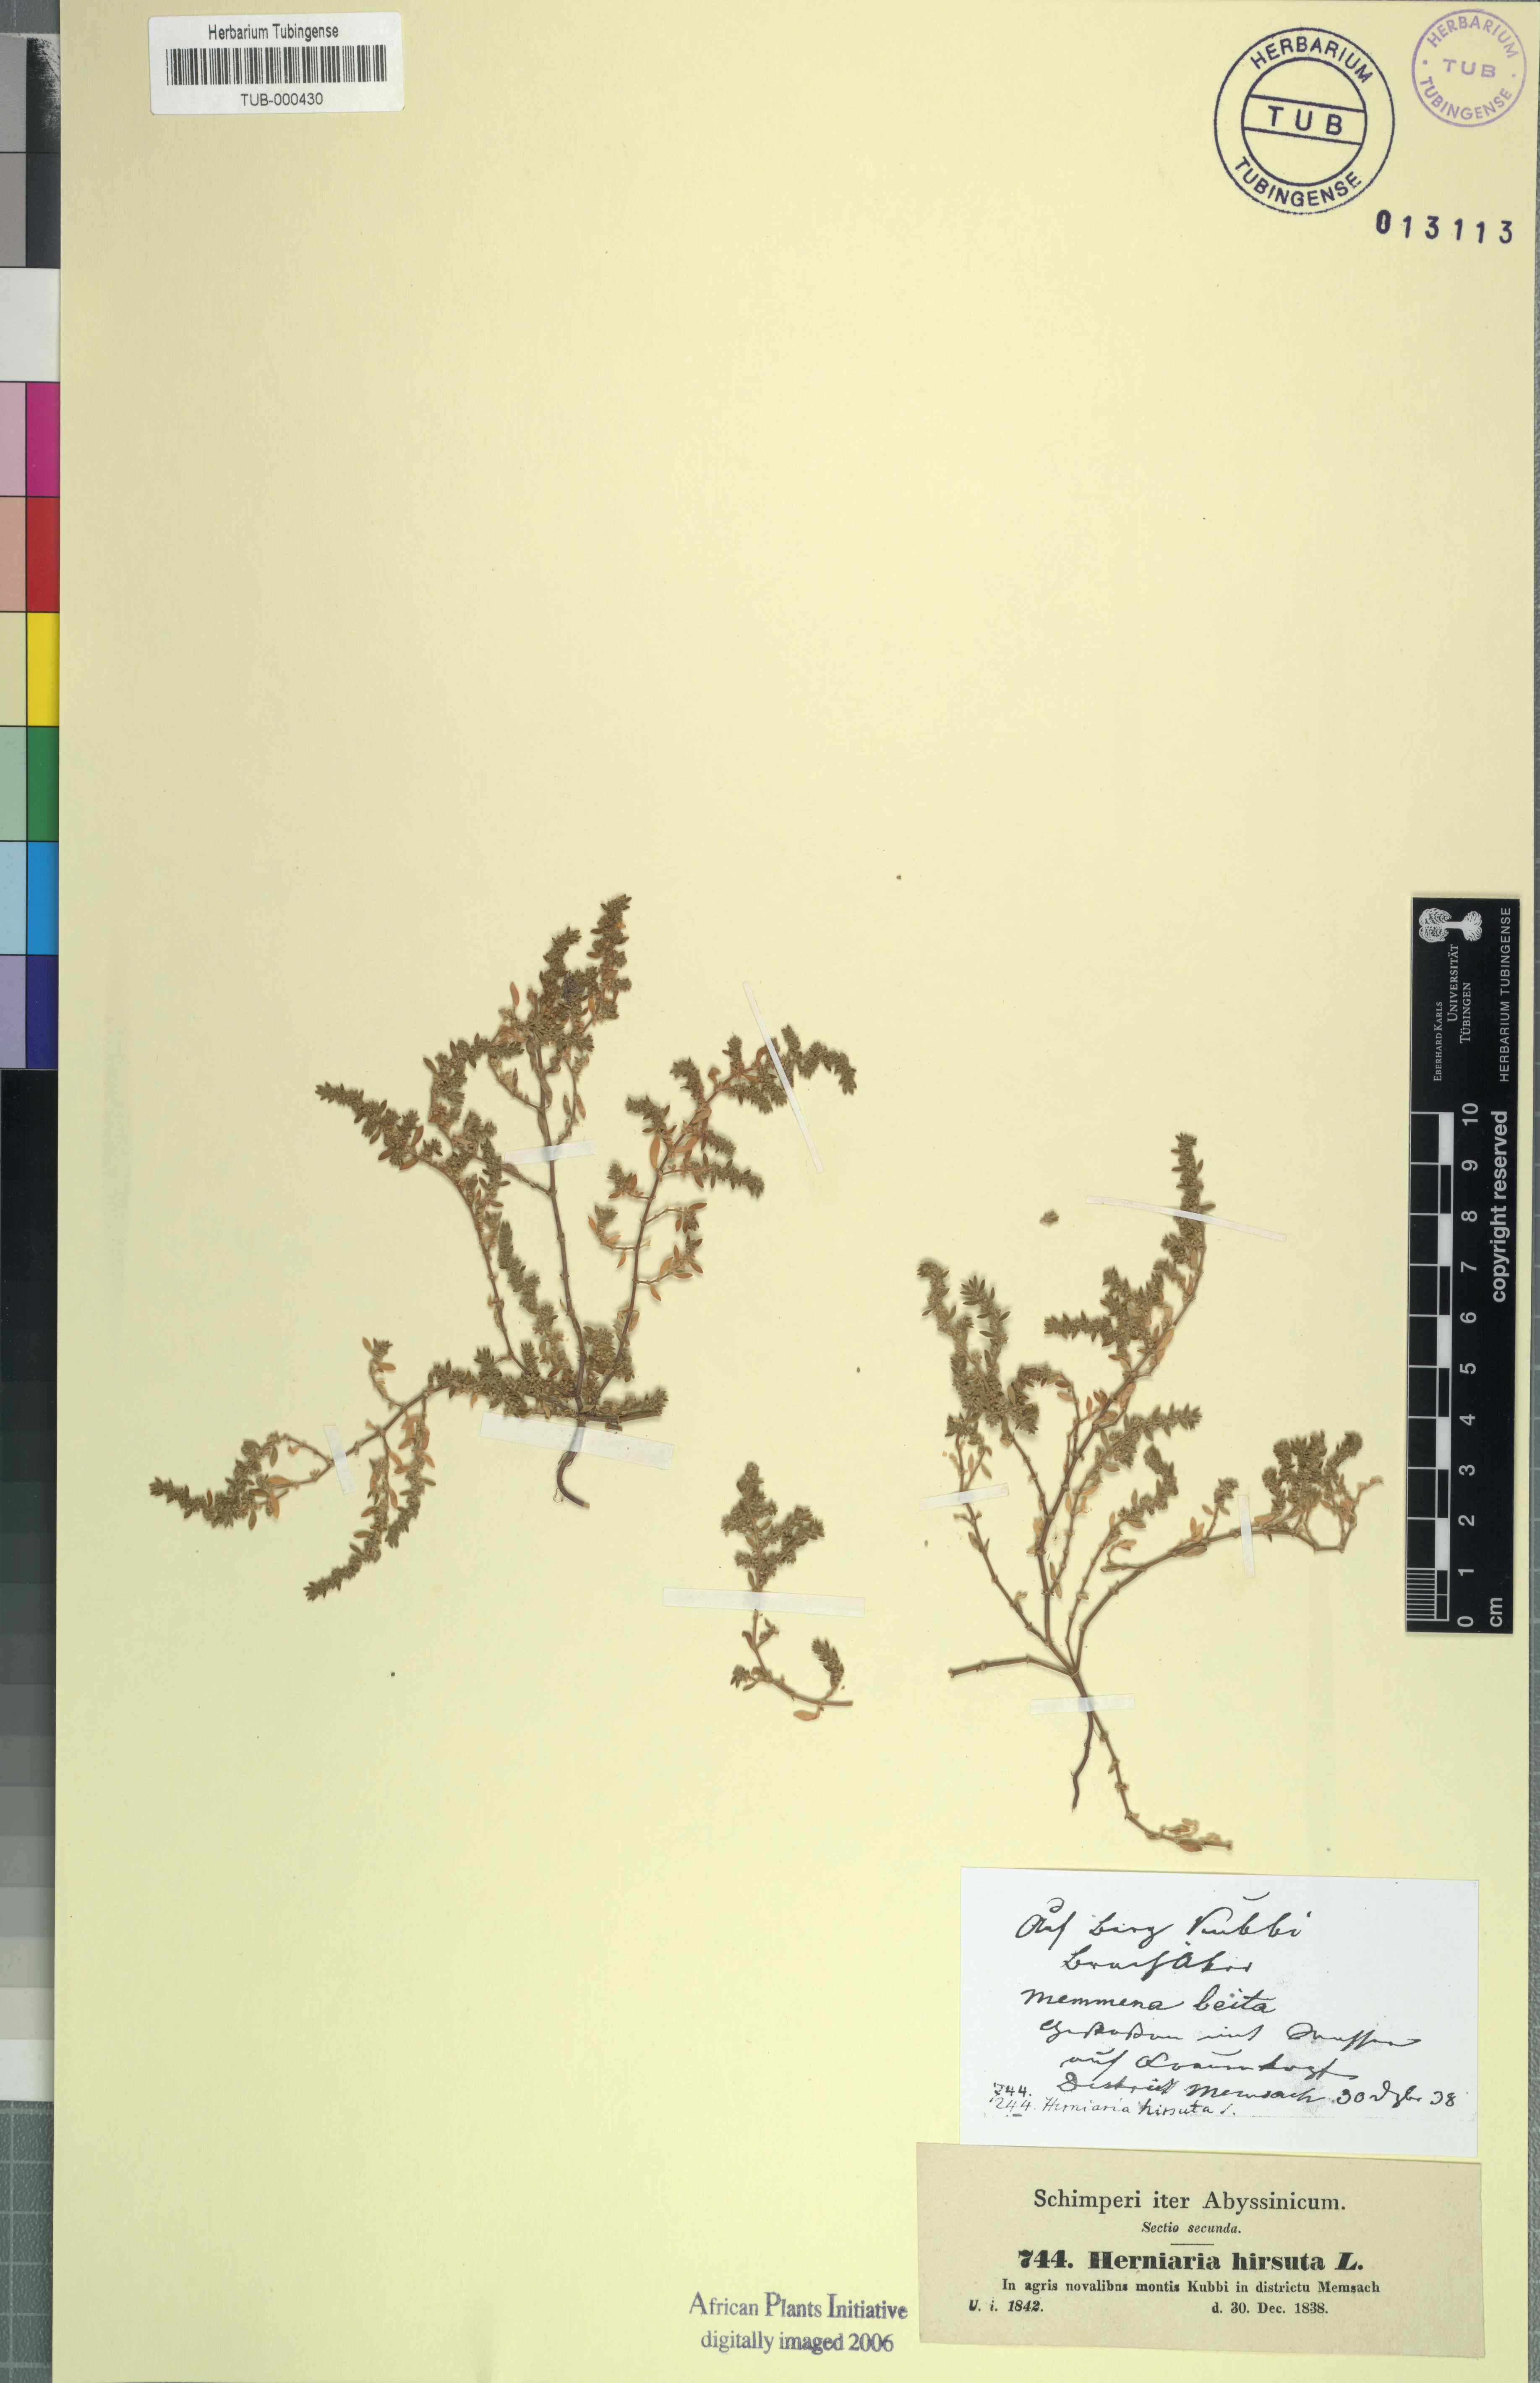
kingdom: Plantae
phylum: Tracheophyta
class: Magnoliopsida
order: Caryophyllales
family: Caryophyllaceae
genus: Herniaria
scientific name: Herniaria hirsuta
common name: Hairy rupturewort
